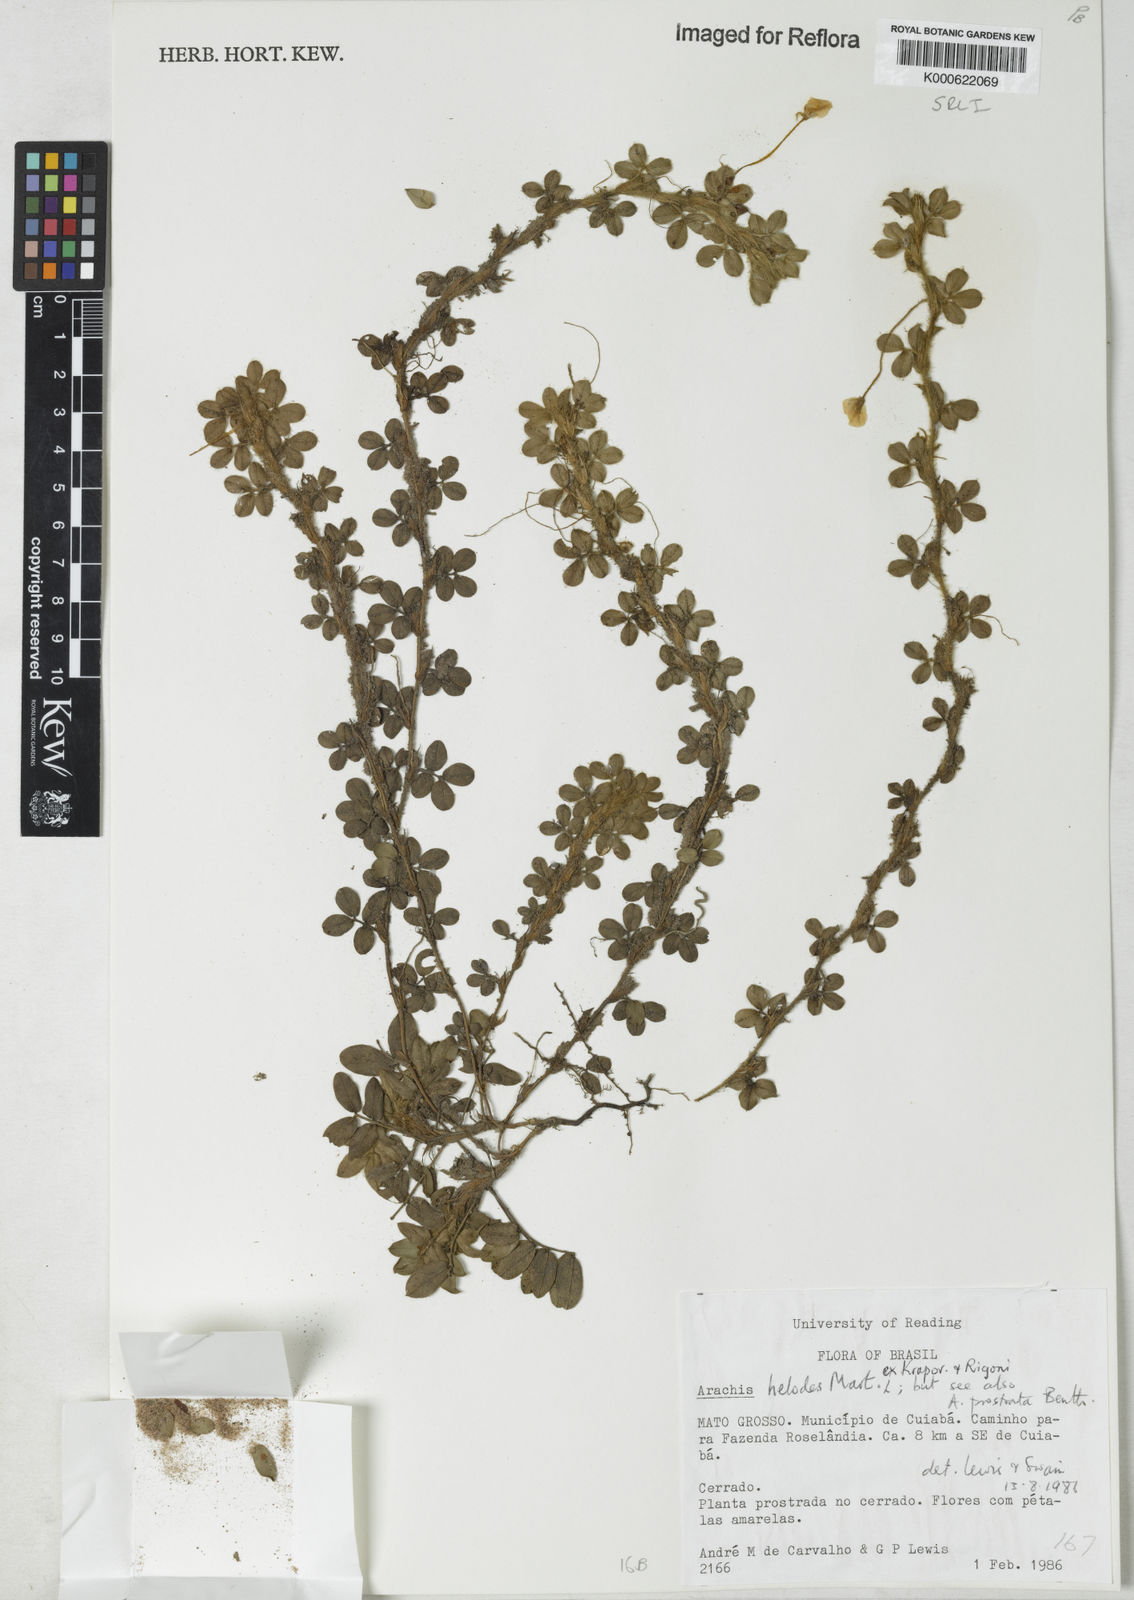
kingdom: Plantae
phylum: Tracheophyta
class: Magnoliopsida
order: Fabales
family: Fabaceae
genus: Arachis
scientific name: Arachis helodes
